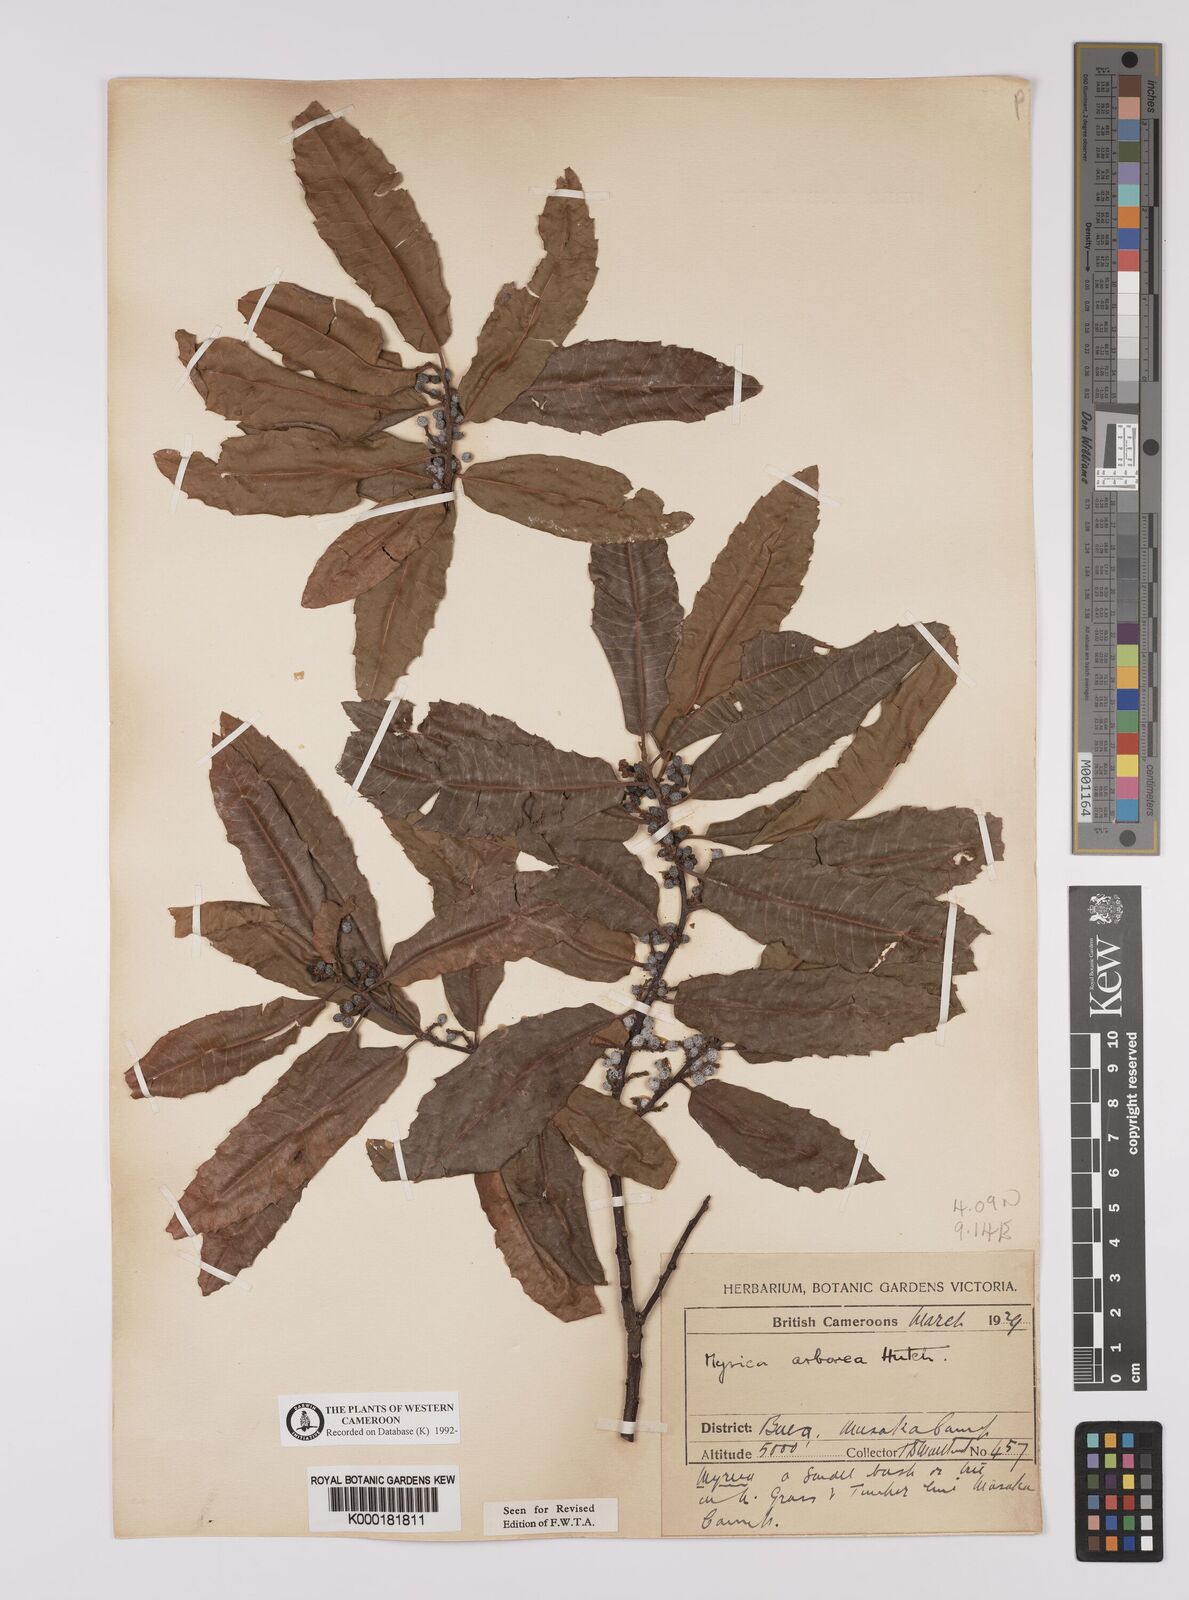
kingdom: Plantae
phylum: Tracheophyta
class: Magnoliopsida
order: Fagales
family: Myricaceae
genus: Morella
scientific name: Morella arborea
